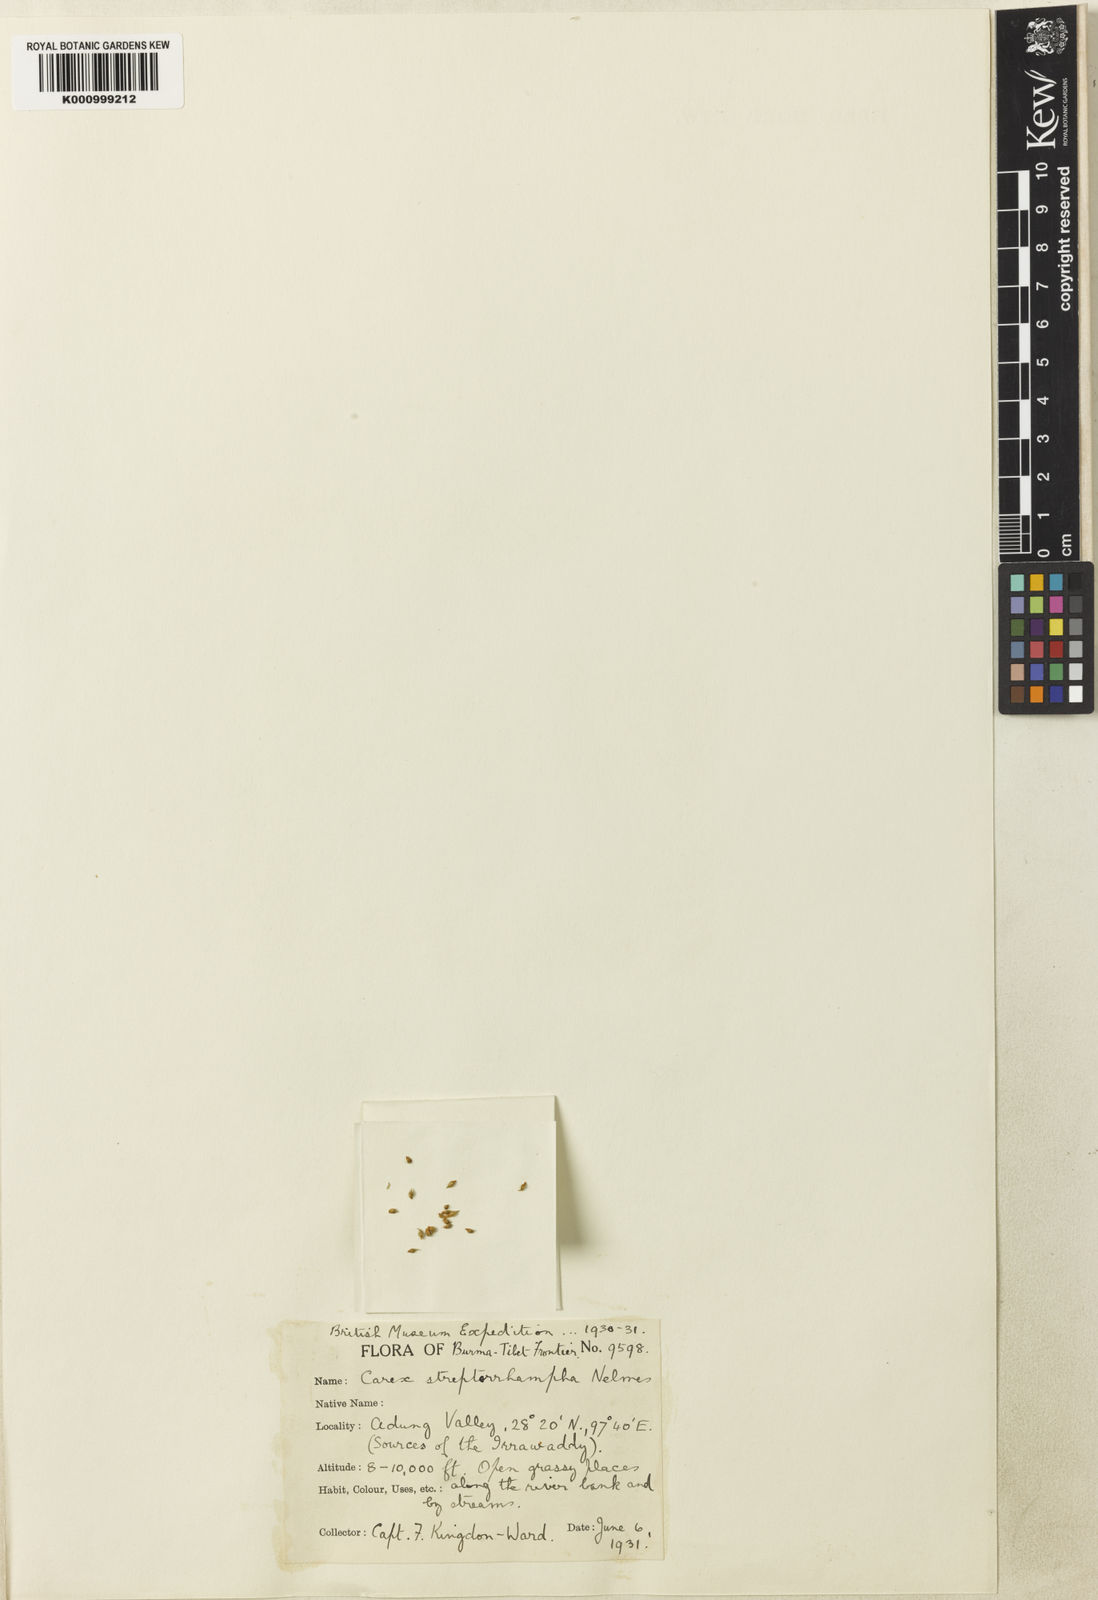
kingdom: Plantae
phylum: Tracheophyta
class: Liliopsida
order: Poales
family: Cyperaceae
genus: Carex
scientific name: Carex streptorrhampha
